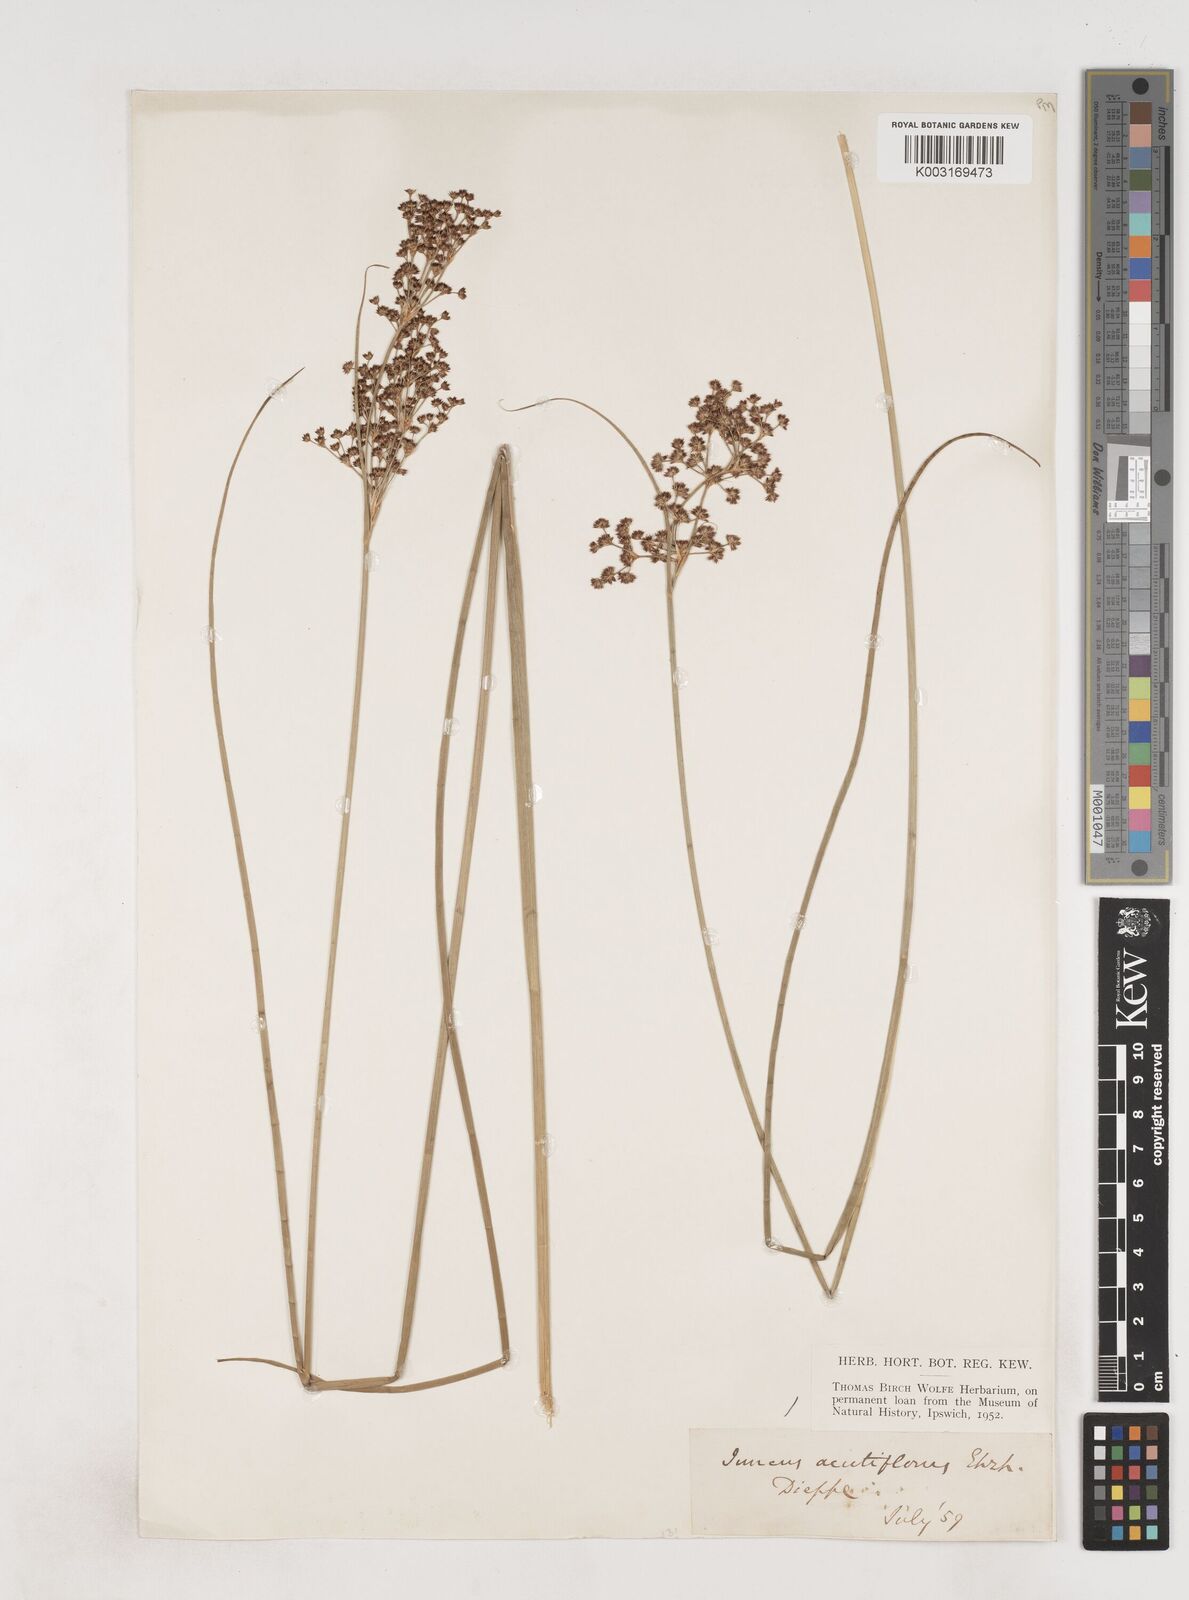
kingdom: Plantae
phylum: Tracheophyta
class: Liliopsida
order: Poales
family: Juncaceae
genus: Juncus
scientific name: Juncus acutiflorus
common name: Sharp-flowered rush
